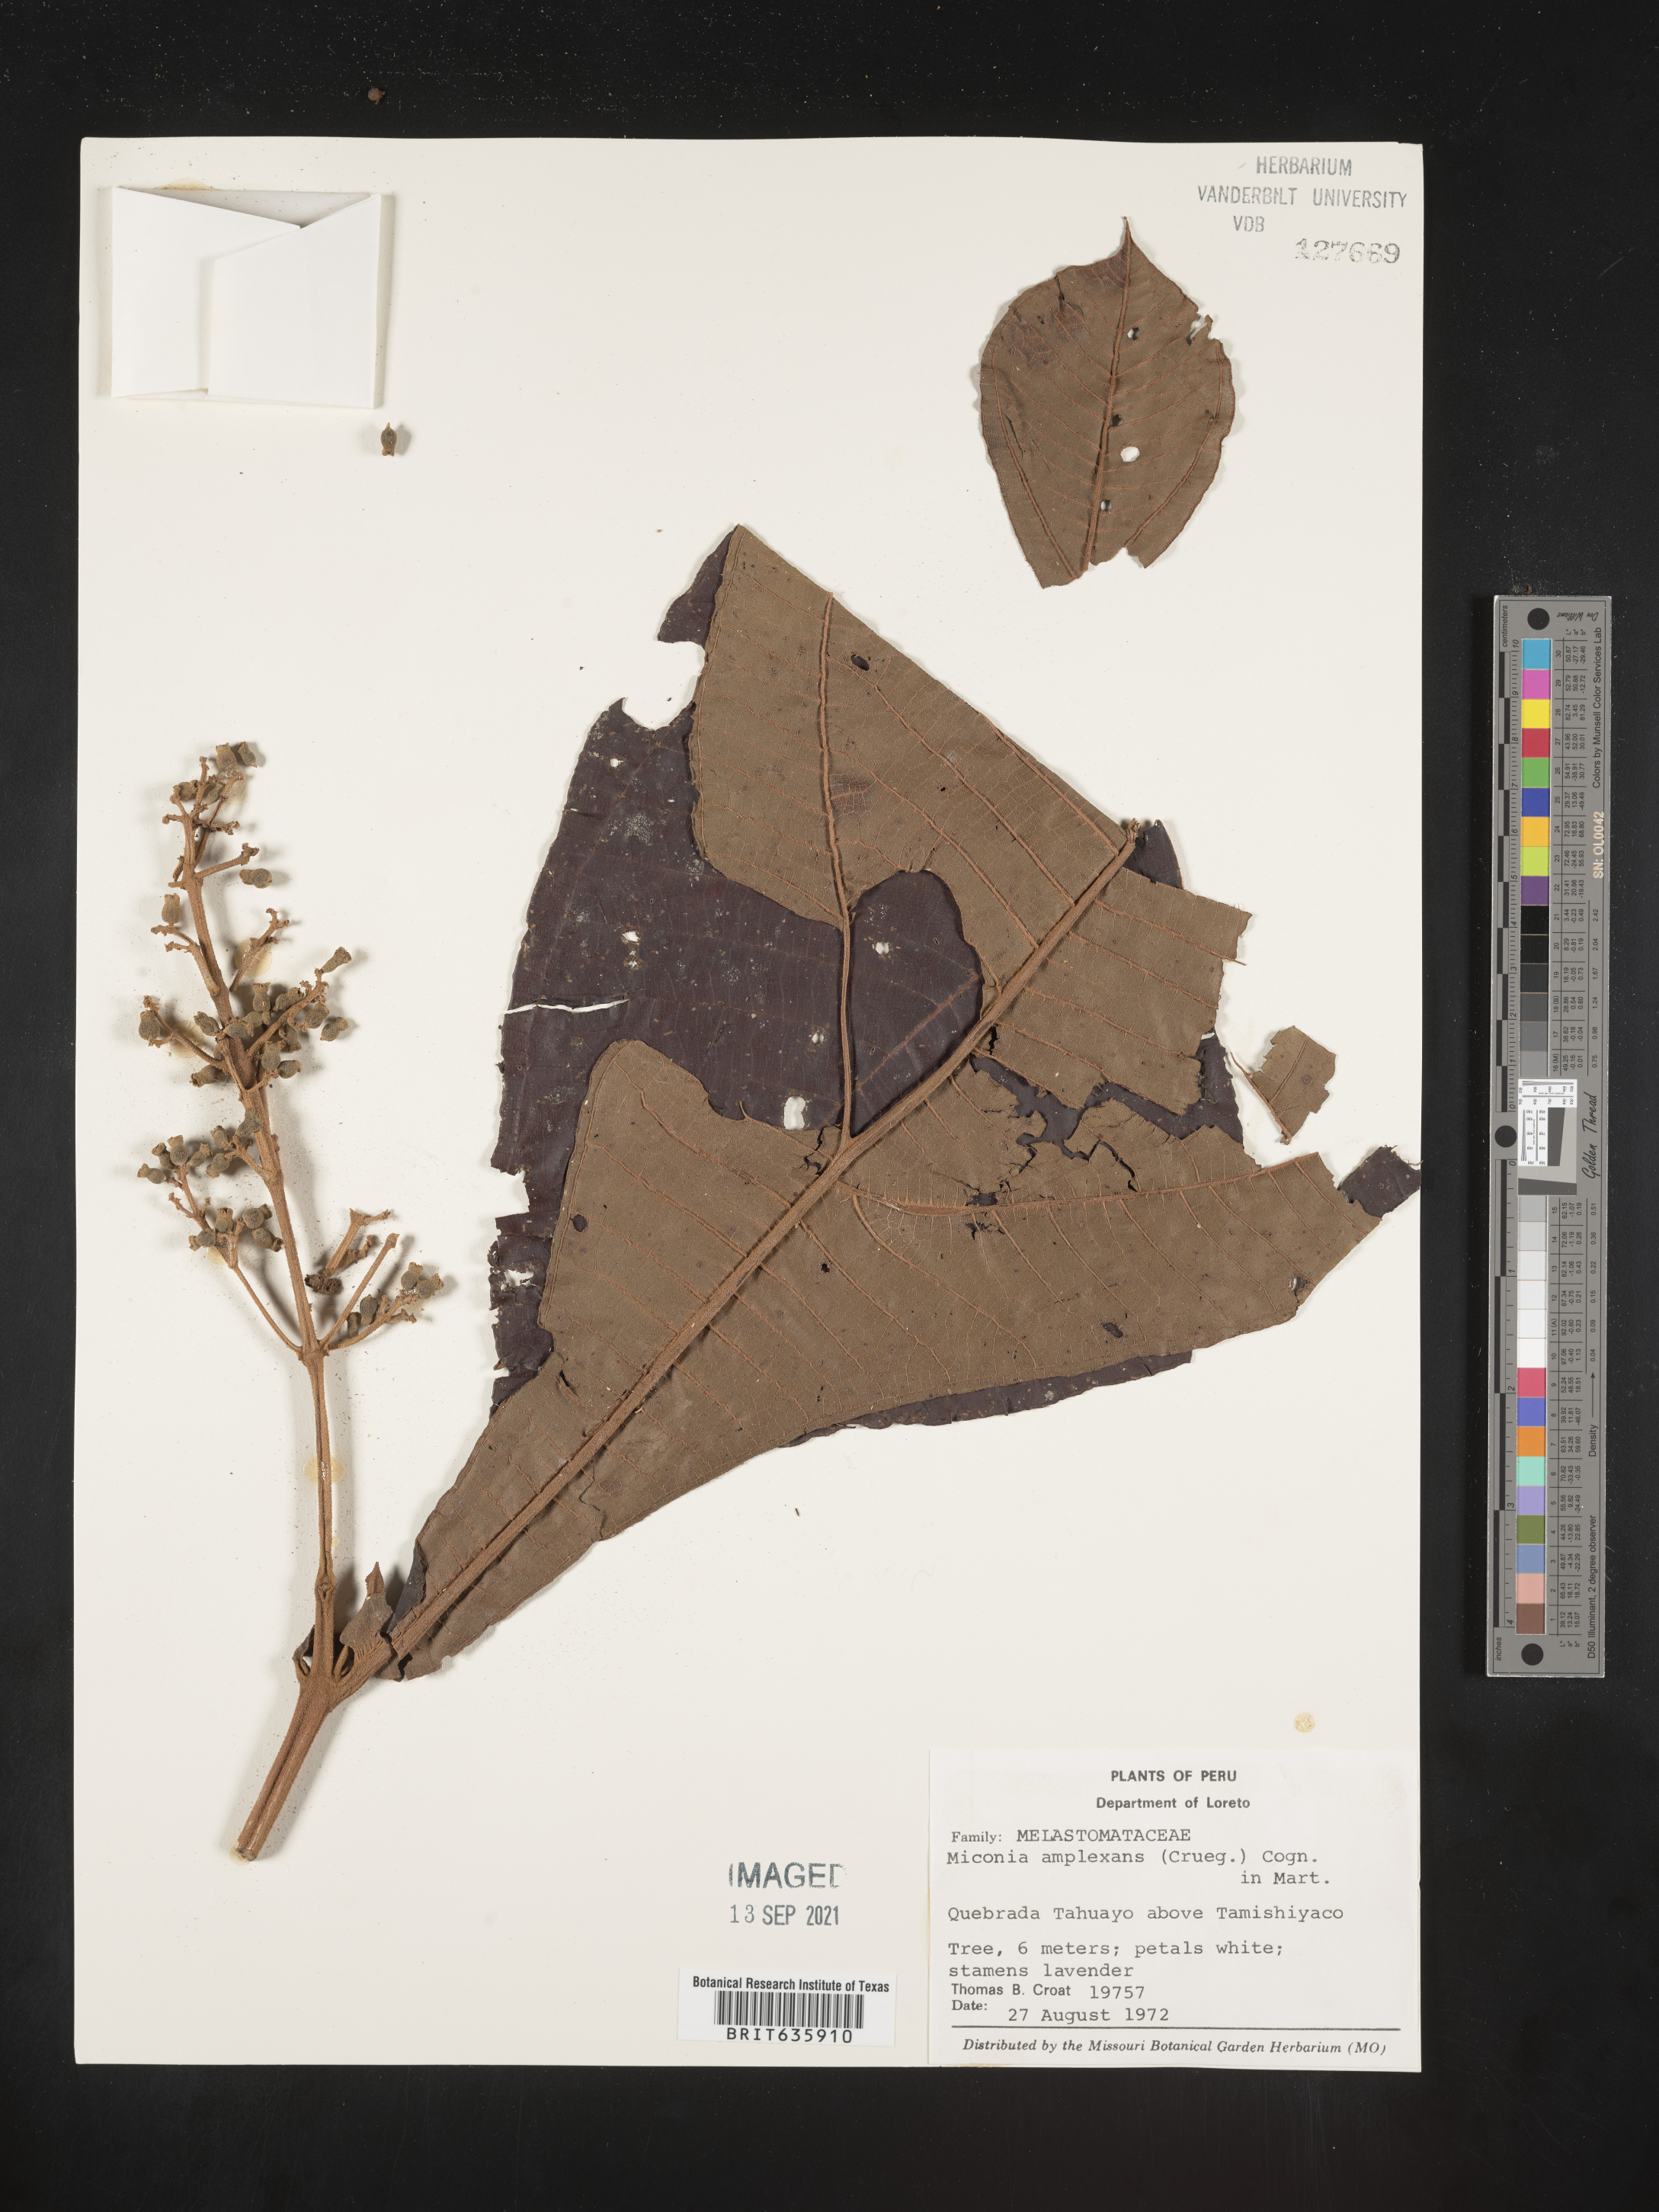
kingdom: Plantae
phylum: Tracheophyta
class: Magnoliopsida
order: Myrtales
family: Melastomataceae
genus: Miconia
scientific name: Miconia
